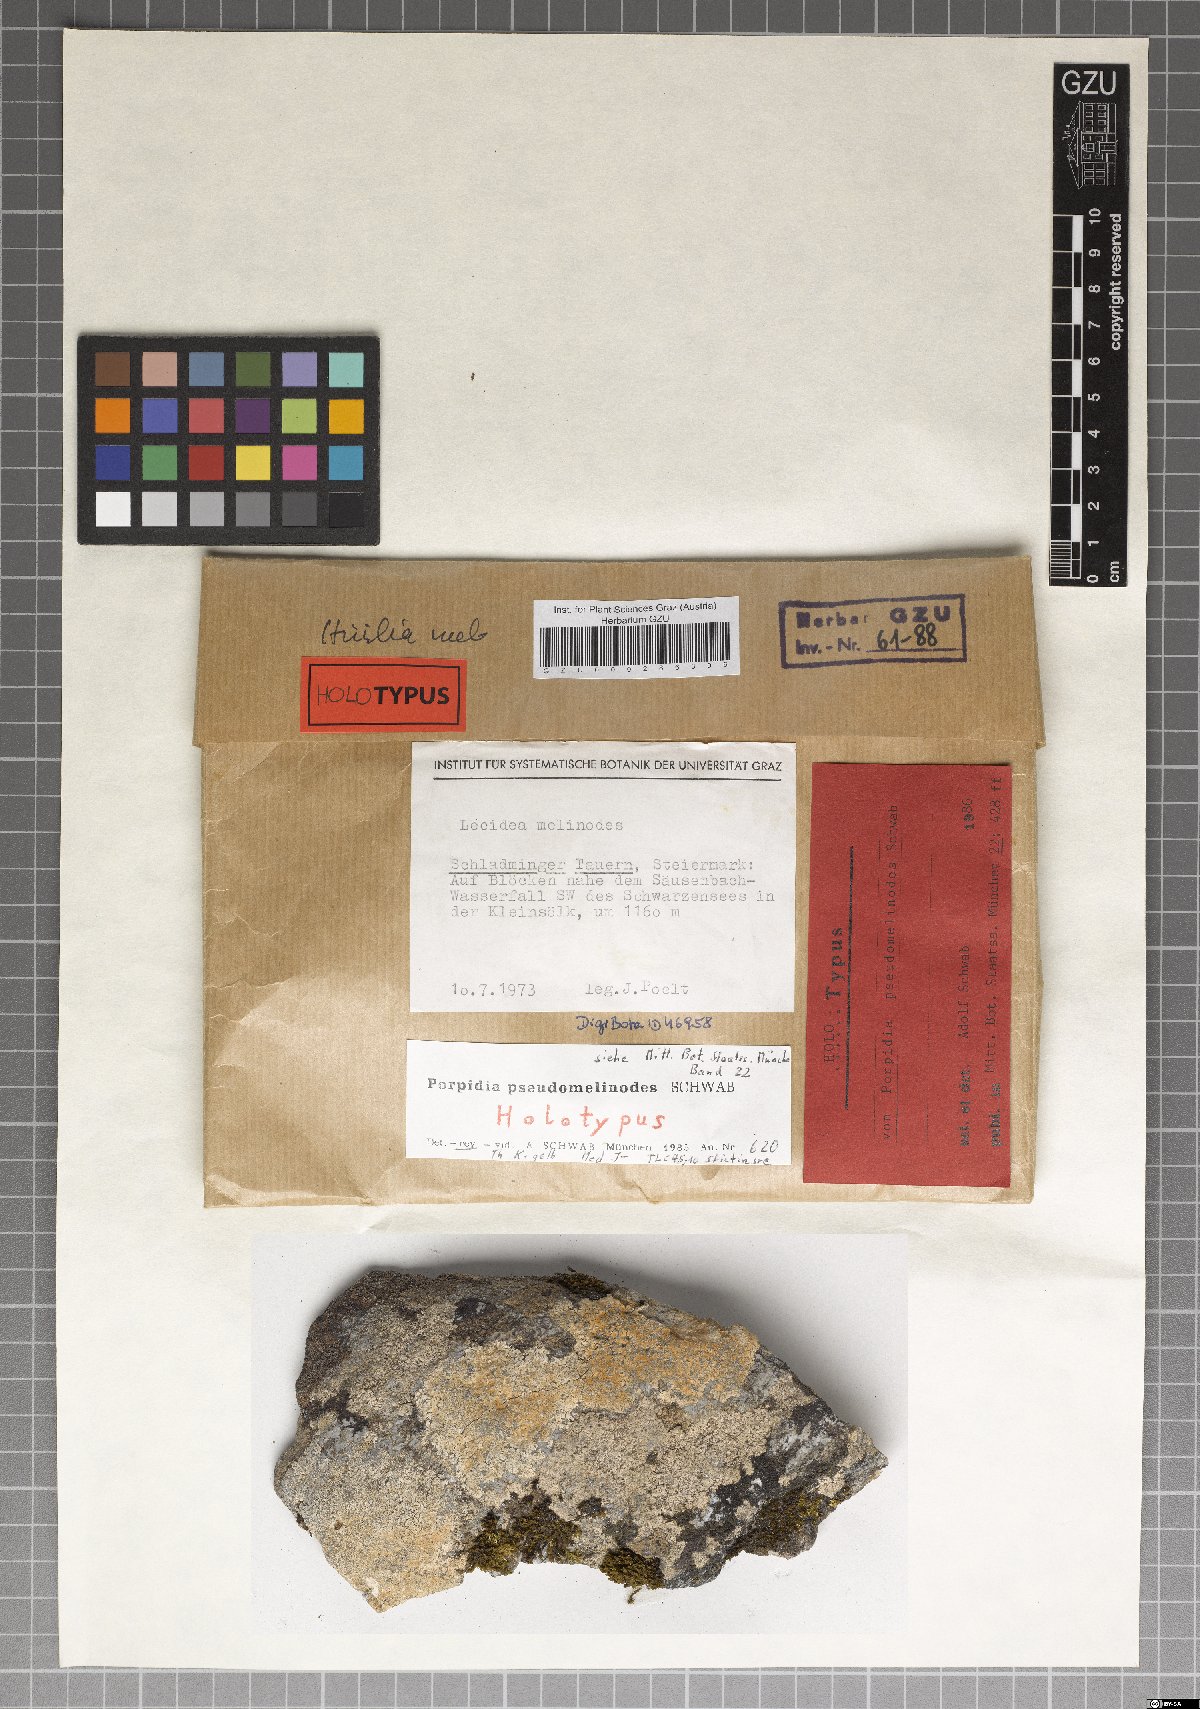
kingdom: Fungi
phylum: Ascomycota
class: Lecanoromycetes
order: Lecideales
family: Lecideaceae
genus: Porpidia
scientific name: Porpidia ochrolemma
